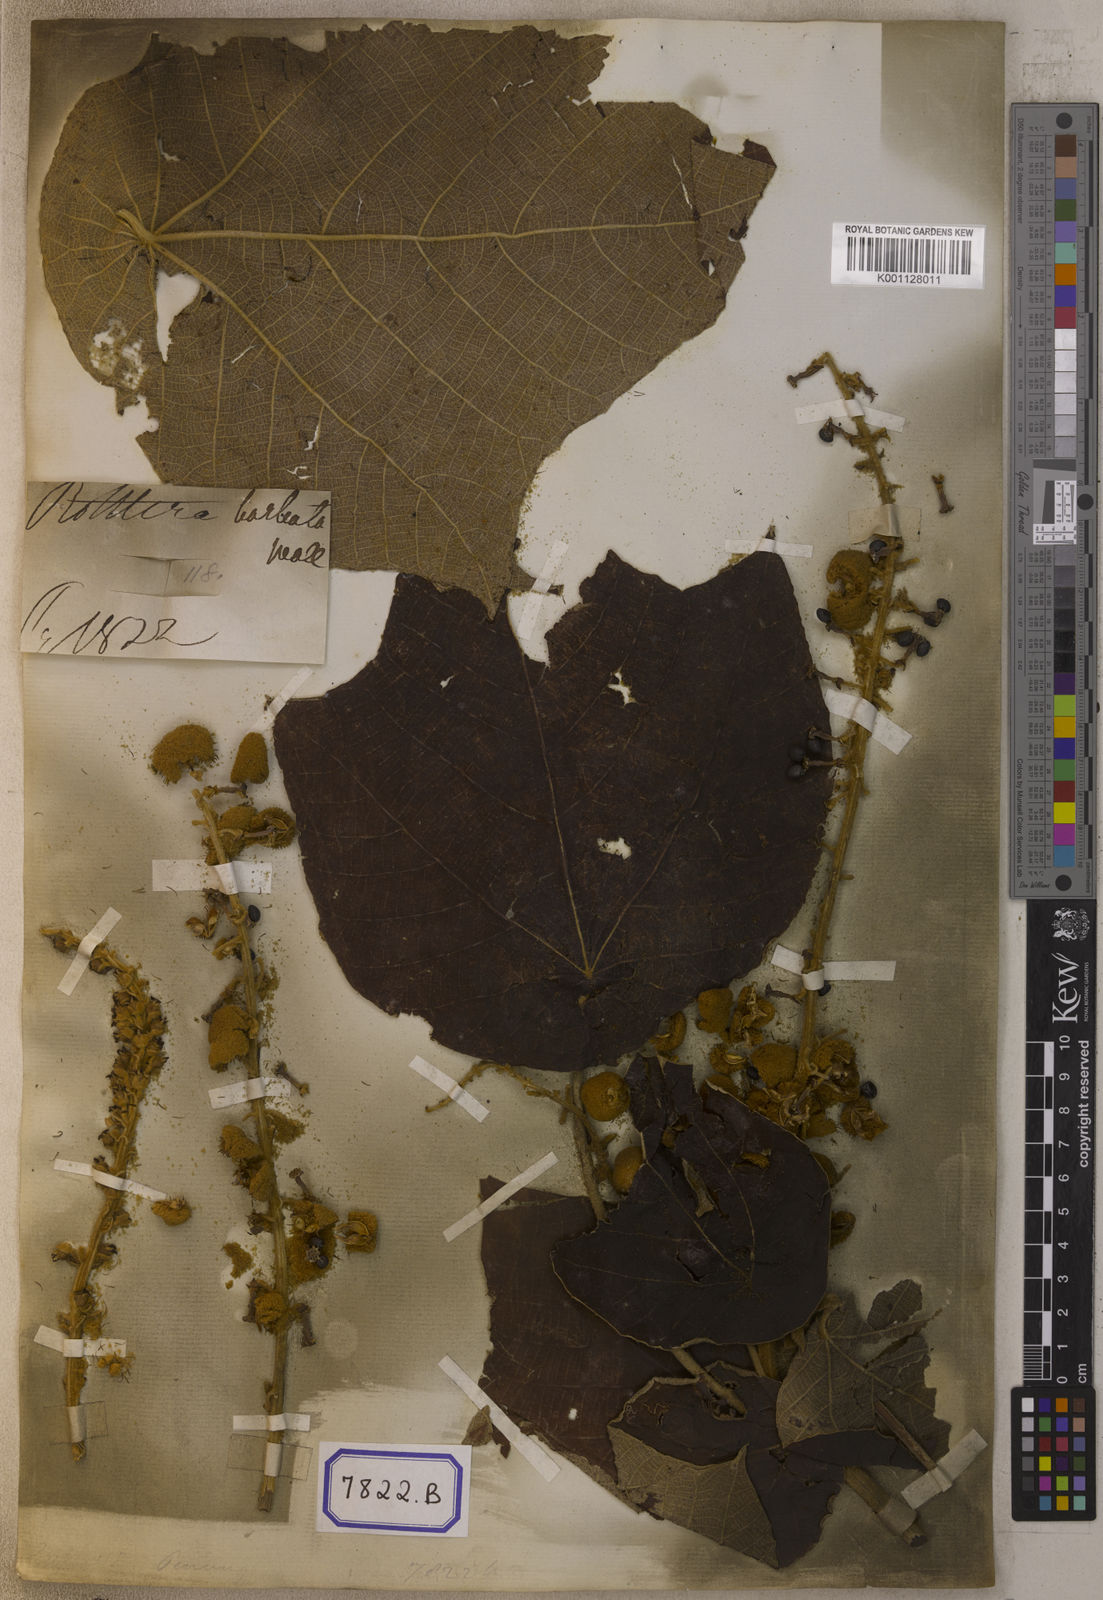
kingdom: Plantae
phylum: Tracheophyta
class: Magnoliopsida
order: Malpighiales
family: Euphorbiaceae
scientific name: Euphorbiaceae
